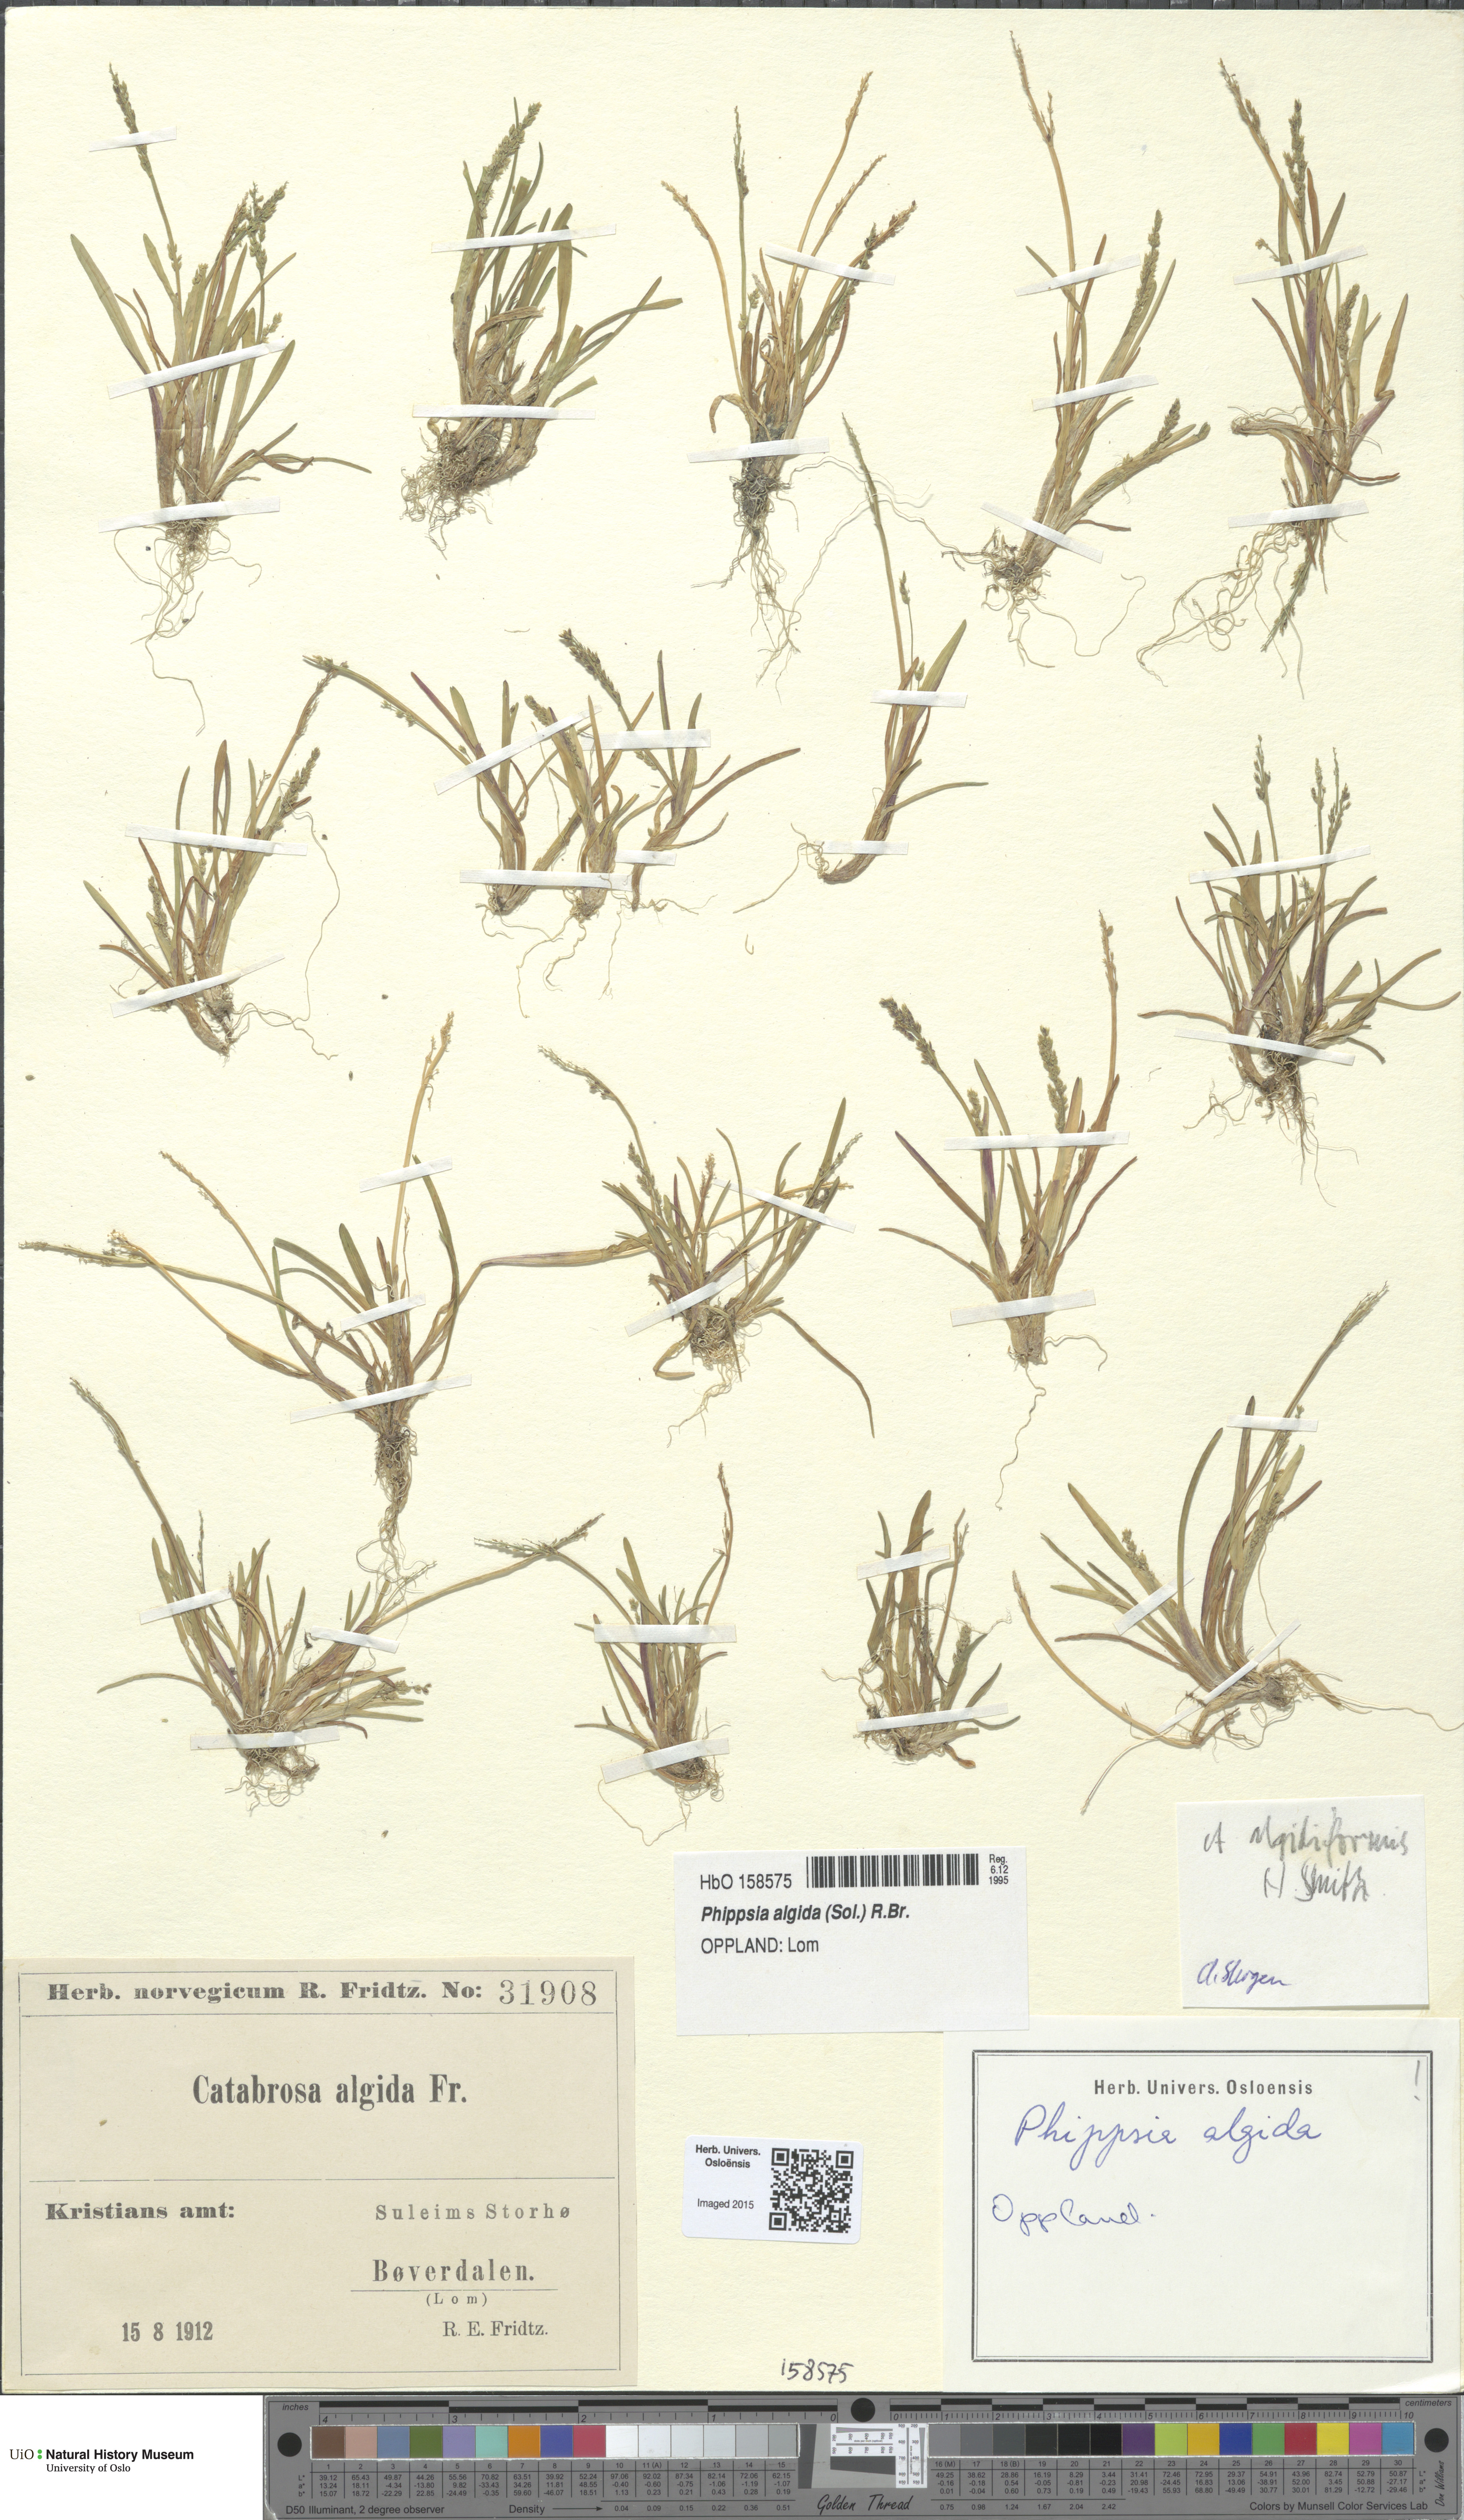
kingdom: Plantae
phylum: Tracheophyta
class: Liliopsida
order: Poales
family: Poaceae
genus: Phippsia
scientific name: Phippsia algida
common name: Ice grass
